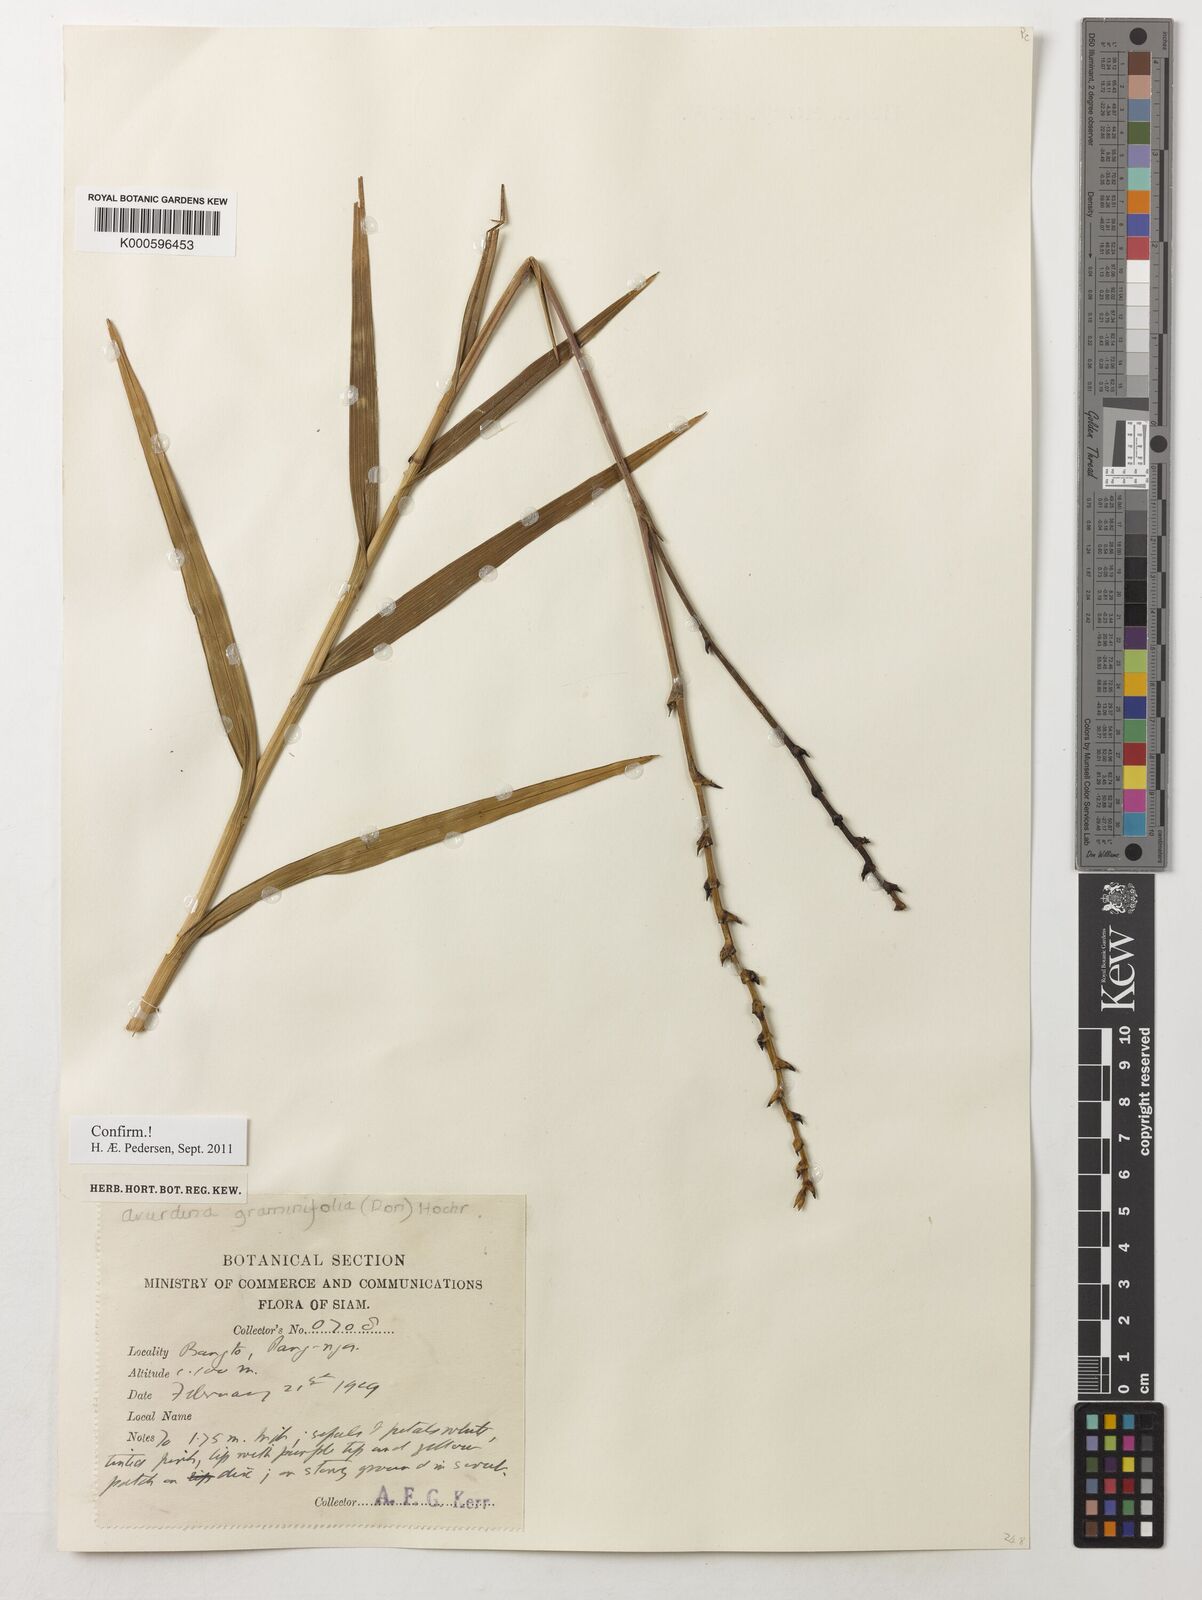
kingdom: Plantae
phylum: Tracheophyta
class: Liliopsida
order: Asparagales
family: Orchidaceae
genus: Arundina
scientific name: Arundina graminifolia
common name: Bamboo orchid
